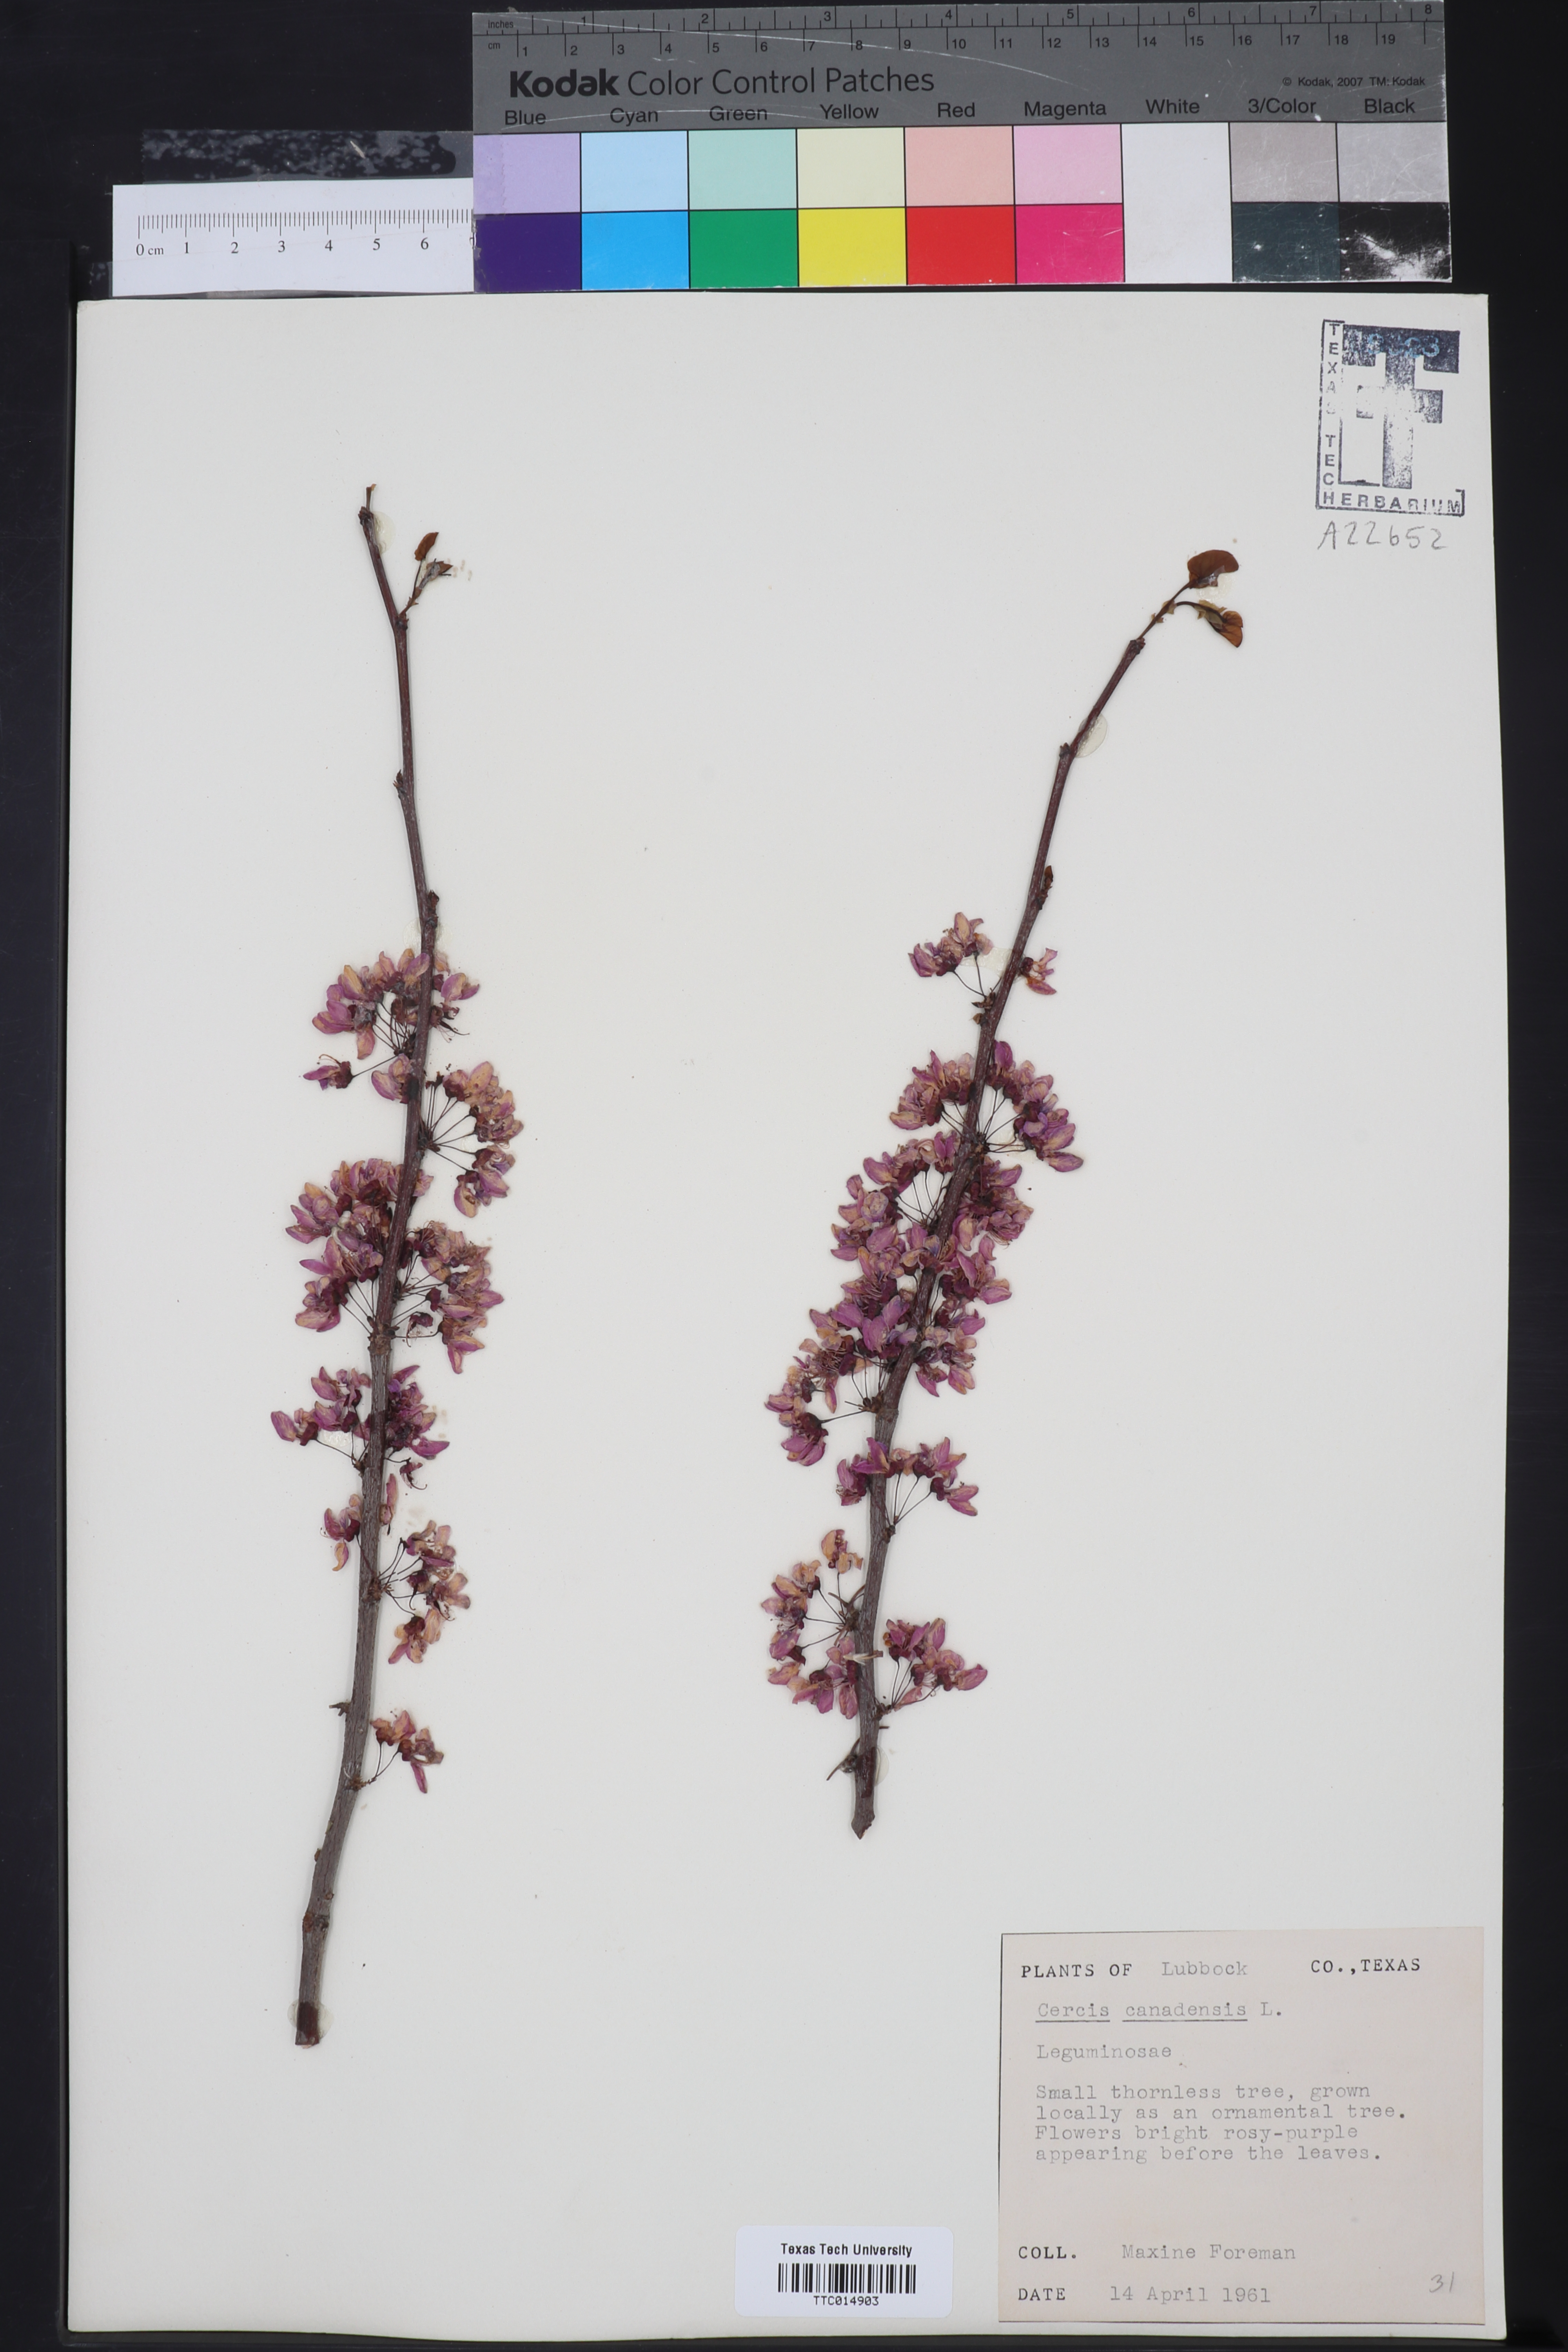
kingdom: Plantae
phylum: Tracheophyta
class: Magnoliopsida
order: Fabales
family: Fabaceae
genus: Cercis
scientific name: Cercis canadensis
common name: Eastern redbud
